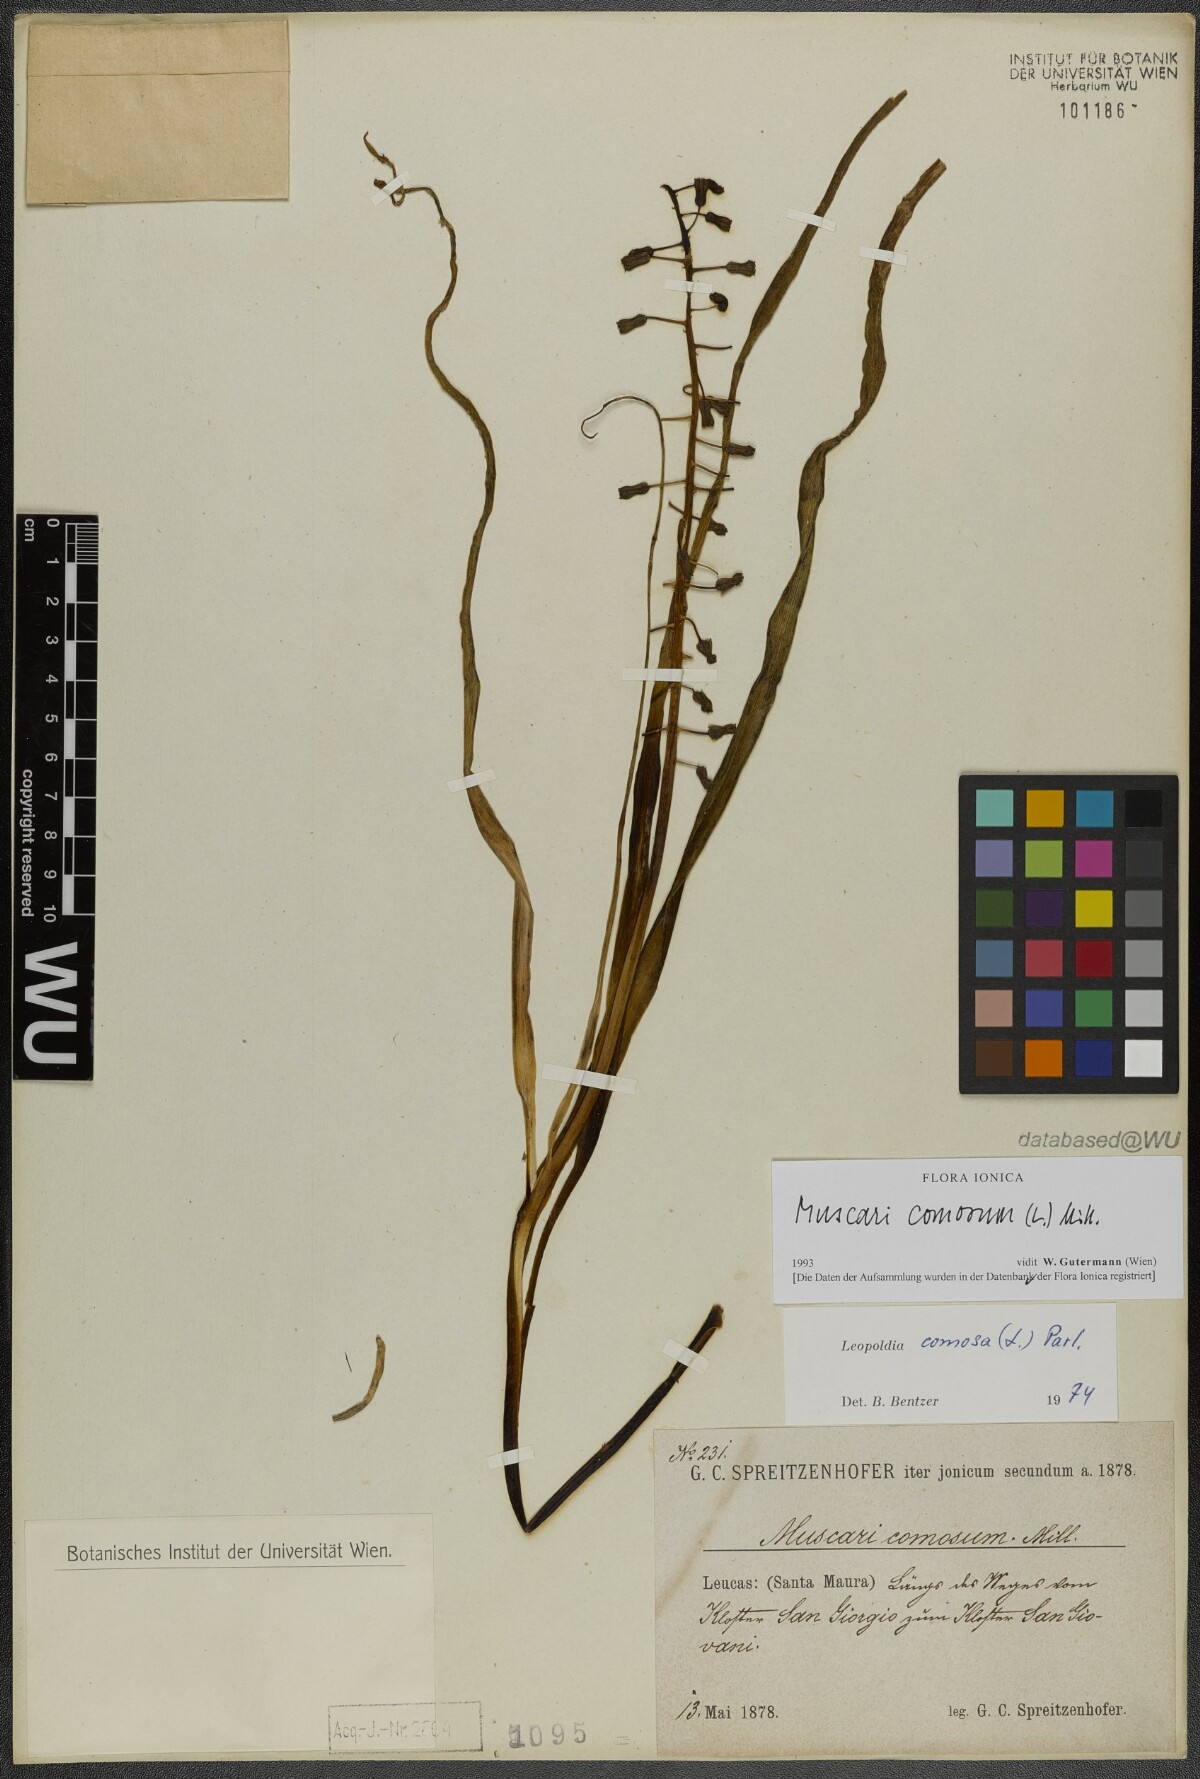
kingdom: Plantae
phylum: Tracheophyta
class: Liliopsida
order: Asparagales
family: Asparagaceae
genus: Muscari
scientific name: Muscari comosum
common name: Tassel hyacinth
